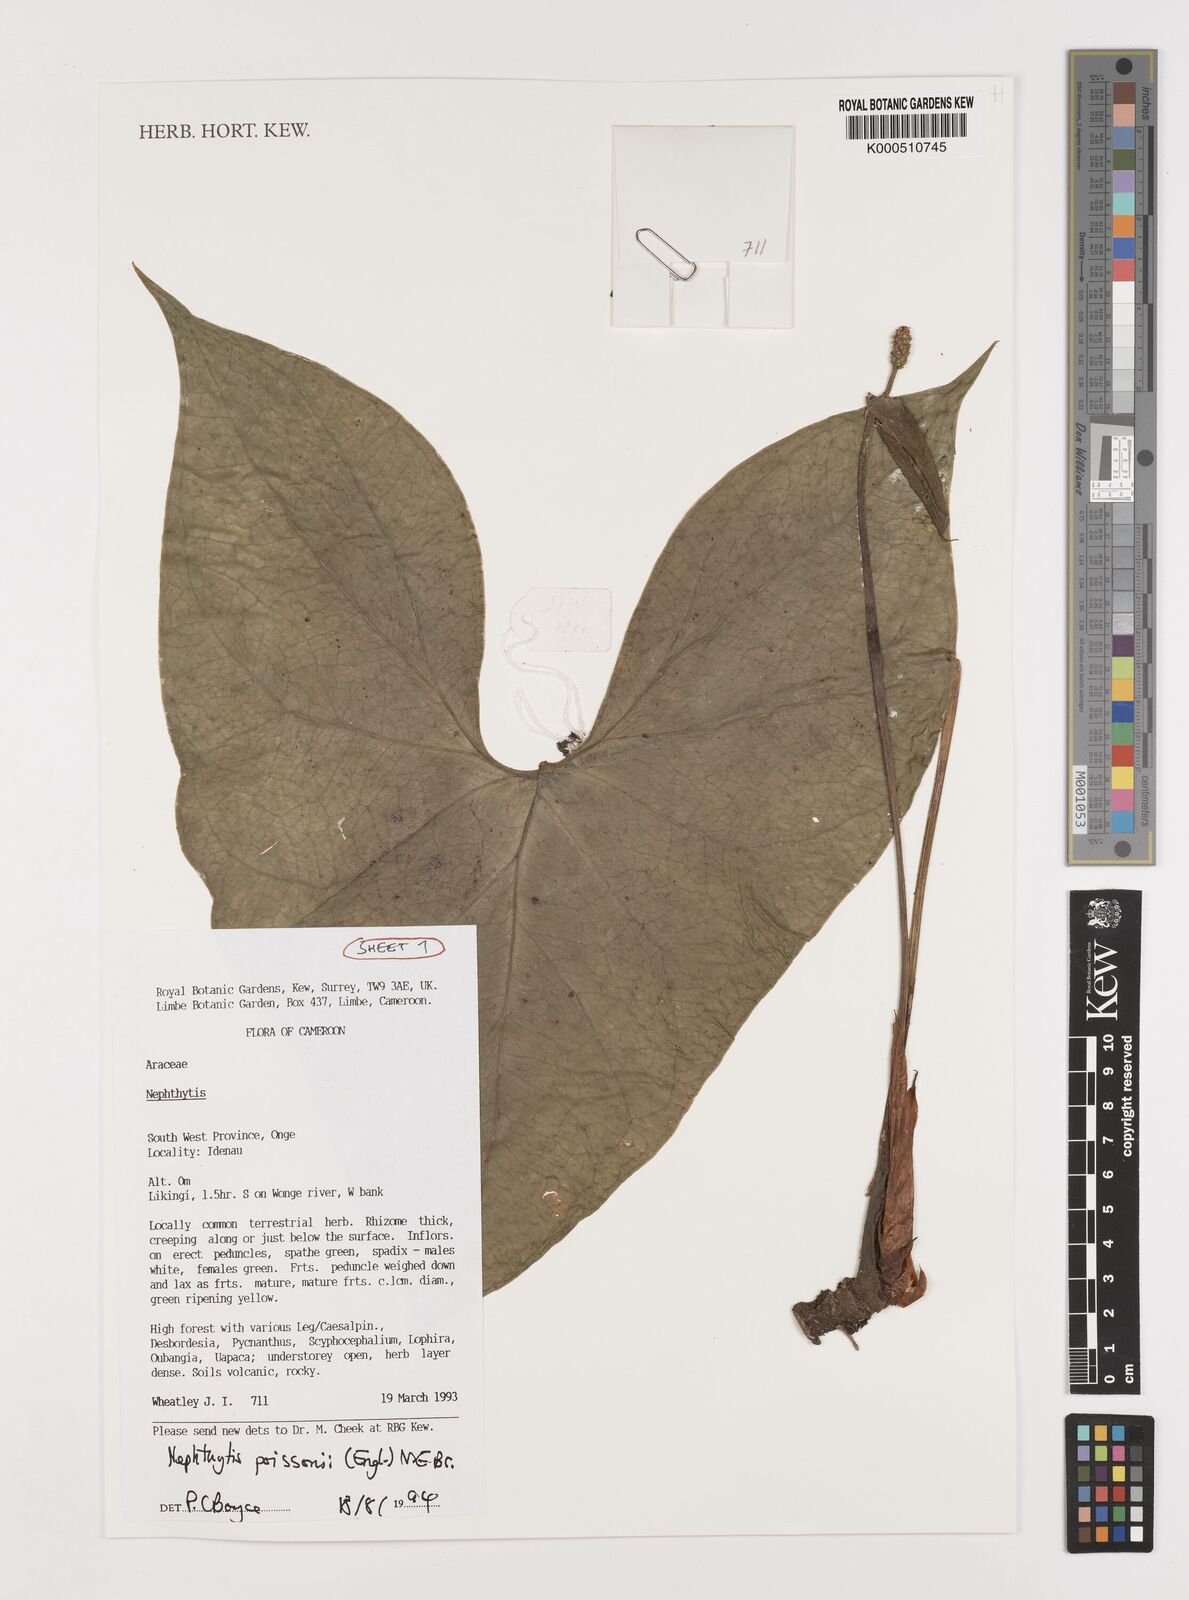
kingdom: Plantae
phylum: Tracheophyta
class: Liliopsida
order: Alismatales
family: Araceae
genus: Nephthytis
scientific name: Nephthytis poissonii
